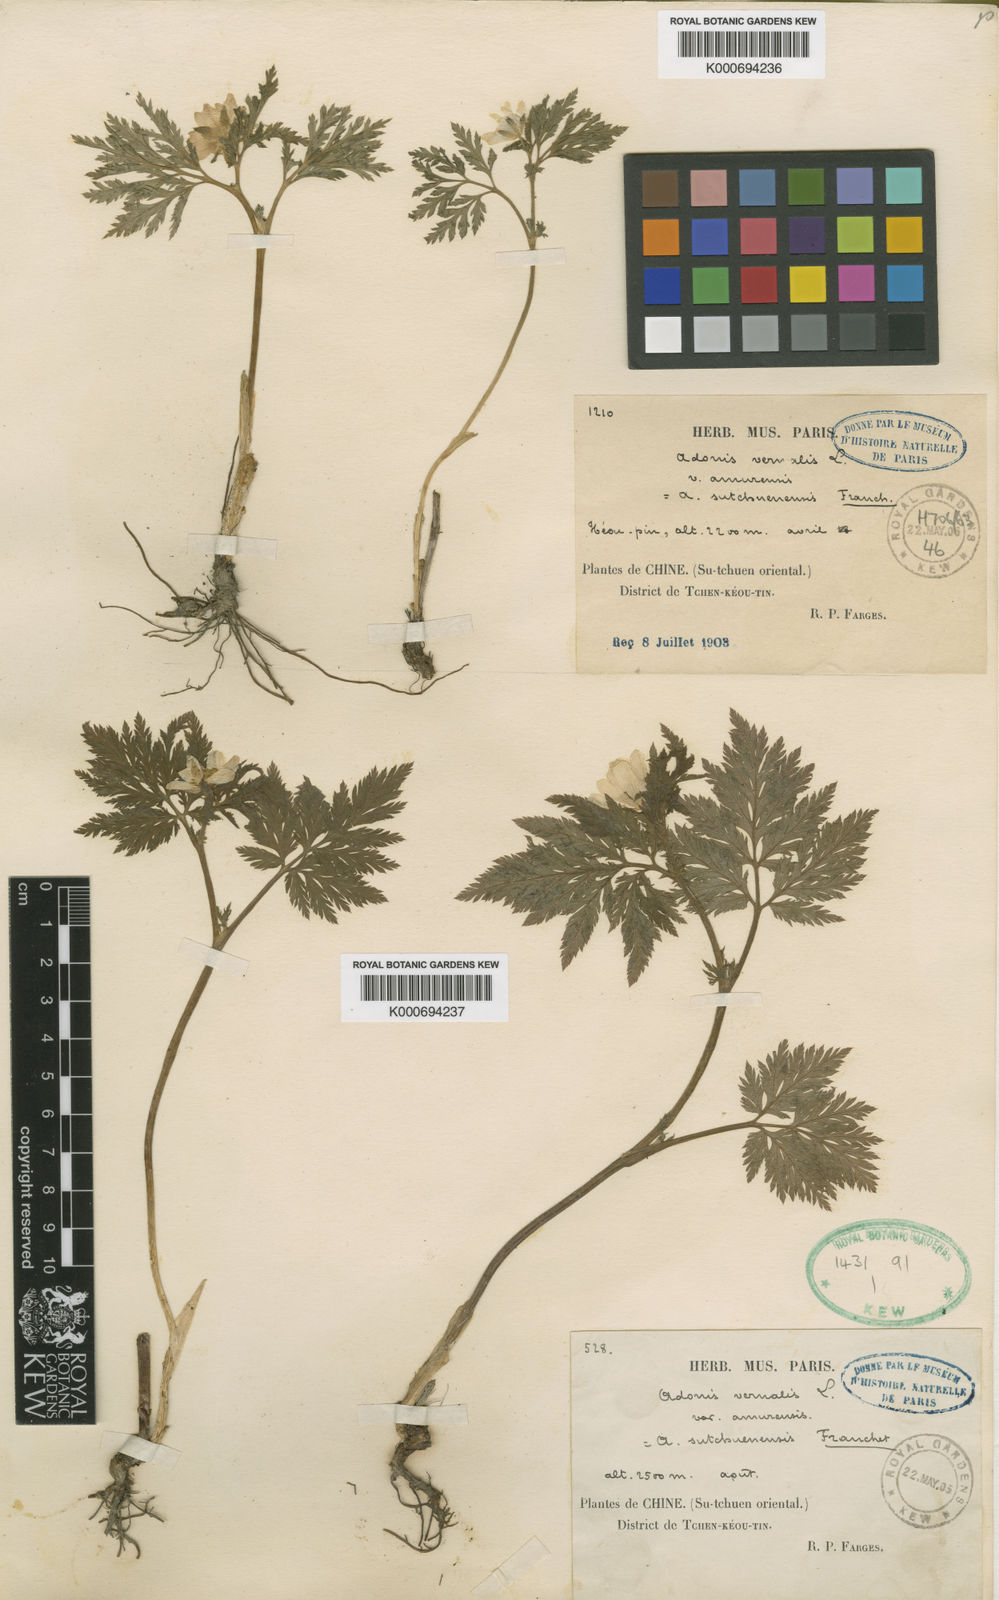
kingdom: Plantae
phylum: Tracheophyta
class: Magnoliopsida
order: Ranunculales
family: Ranunculaceae
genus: Adonis
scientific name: Adonis sutchuenensis
